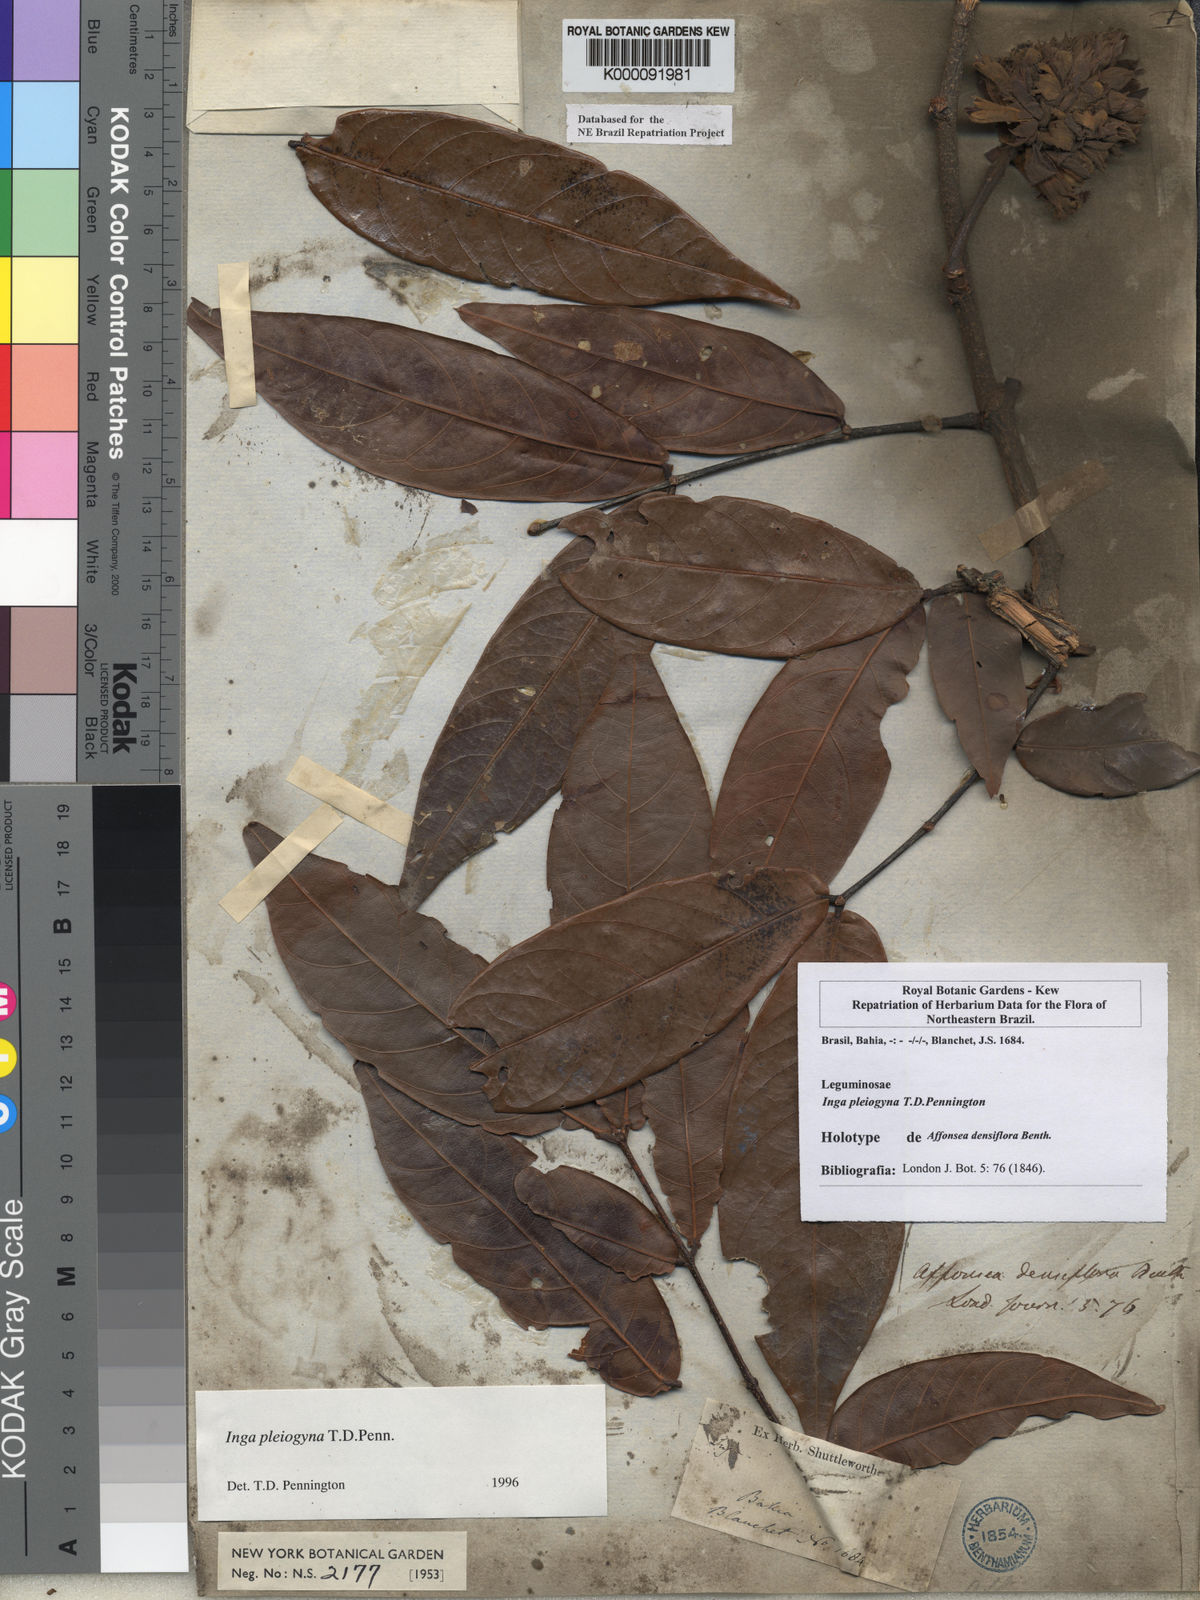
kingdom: Plantae
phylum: Tracheophyta
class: Magnoliopsida
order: Fabales
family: Fabaceae
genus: Inga
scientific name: Inga pleiogyna
